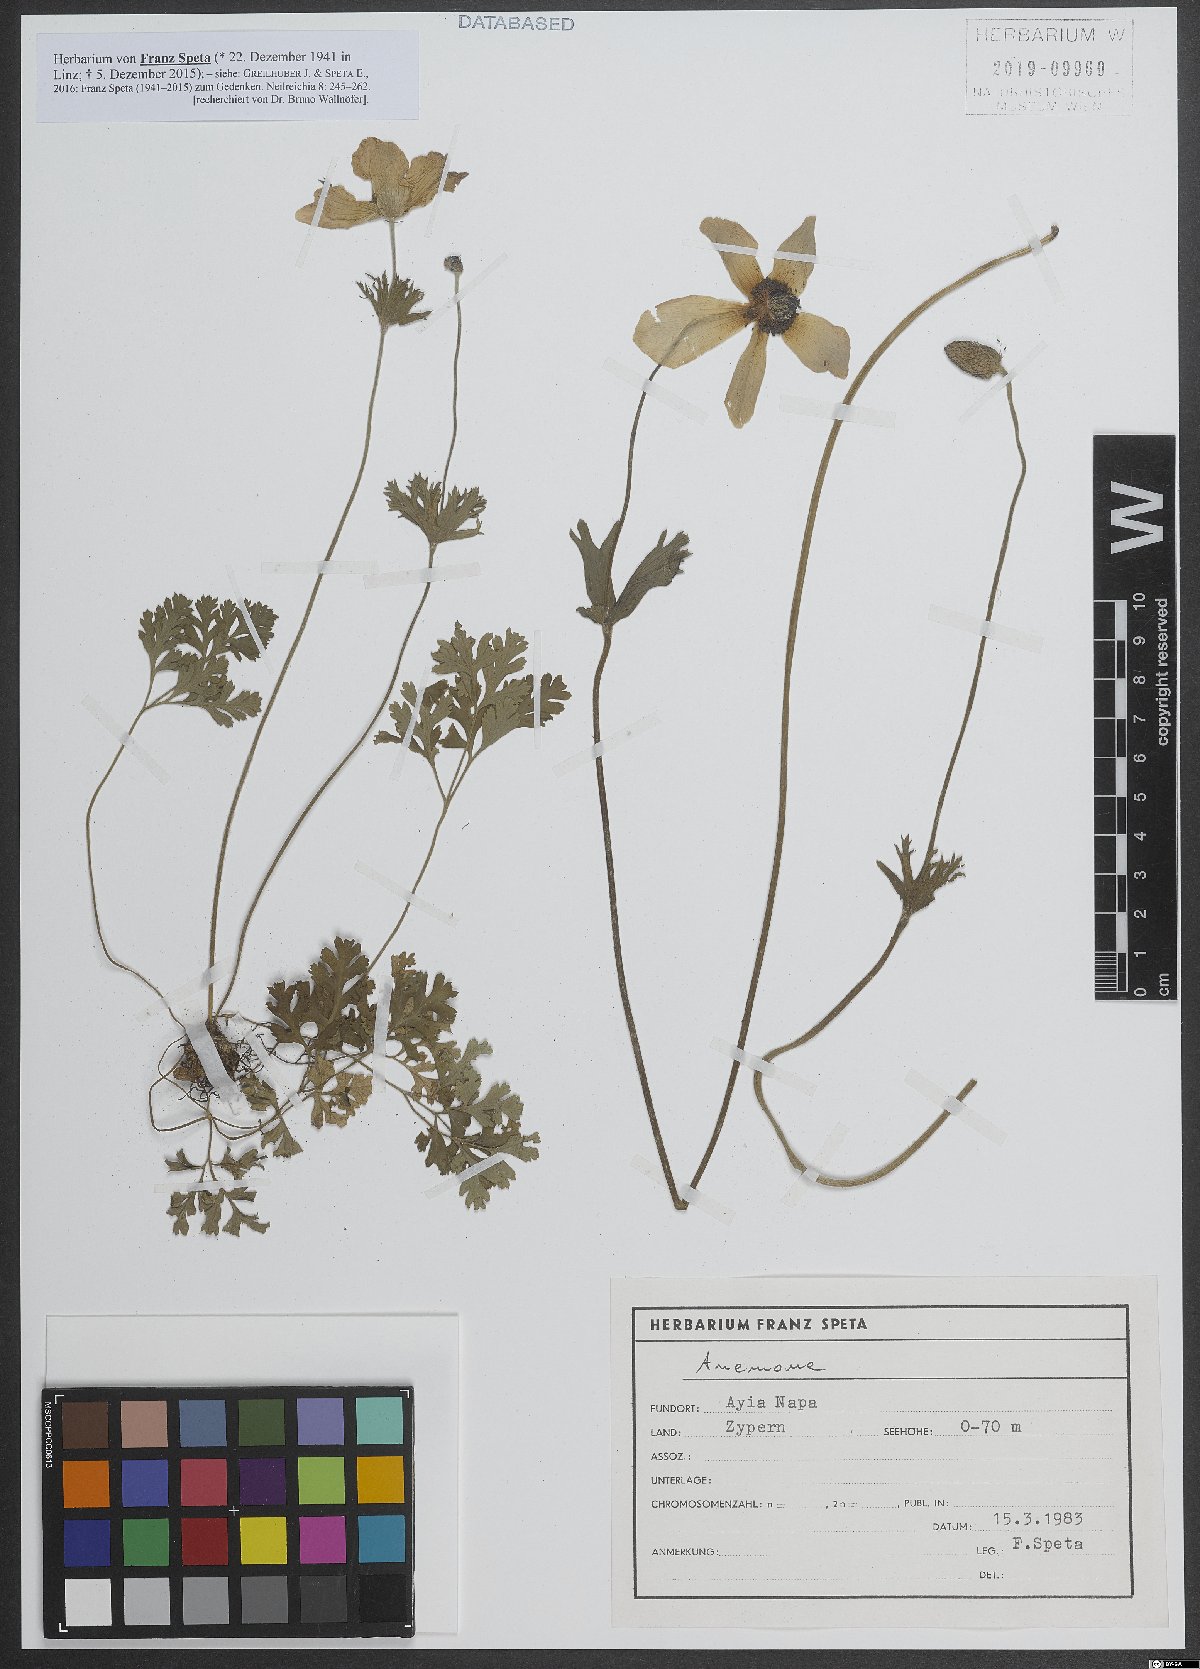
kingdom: Plantae
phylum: Tracheophyta
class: Magnoliopsida
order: Ranunculales
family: Ranunculaceae
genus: Anemone
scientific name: Anemone
